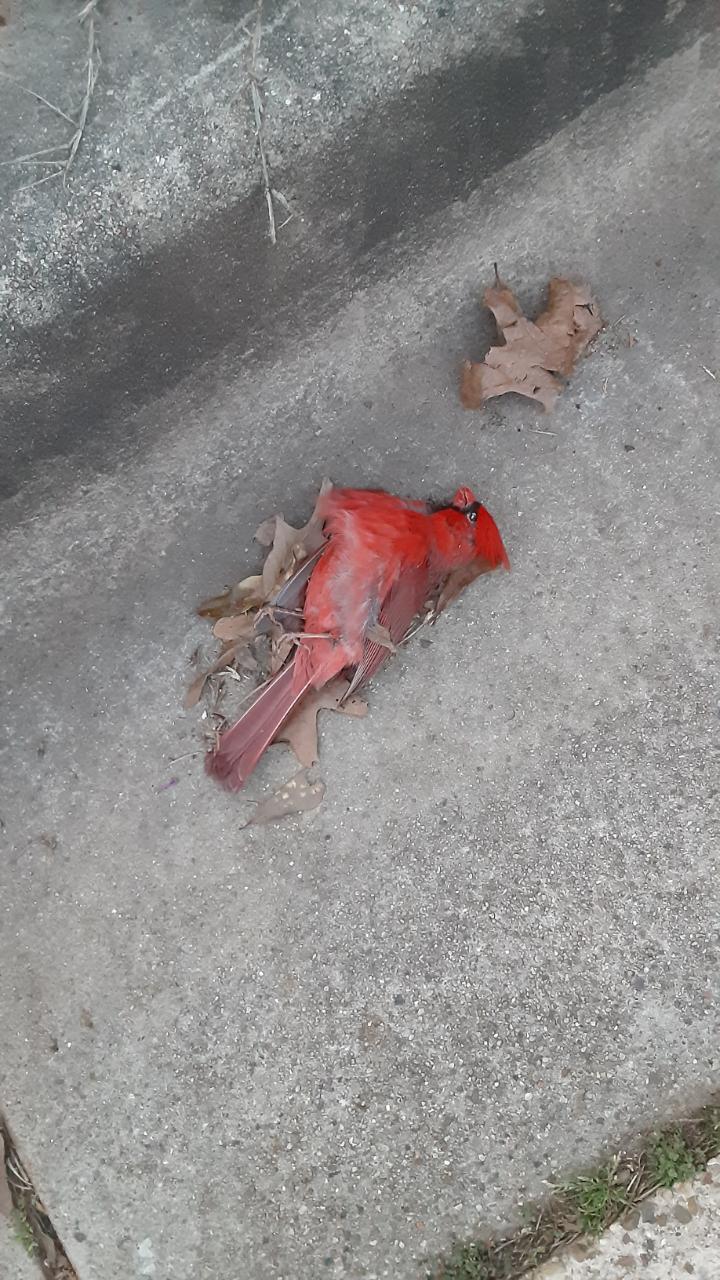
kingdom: Animalia
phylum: Chordata
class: Aves
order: Passeriformes
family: Cardinalidae
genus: Cardinalis
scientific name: Cardinalis cardinalis
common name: Northern cardinal
